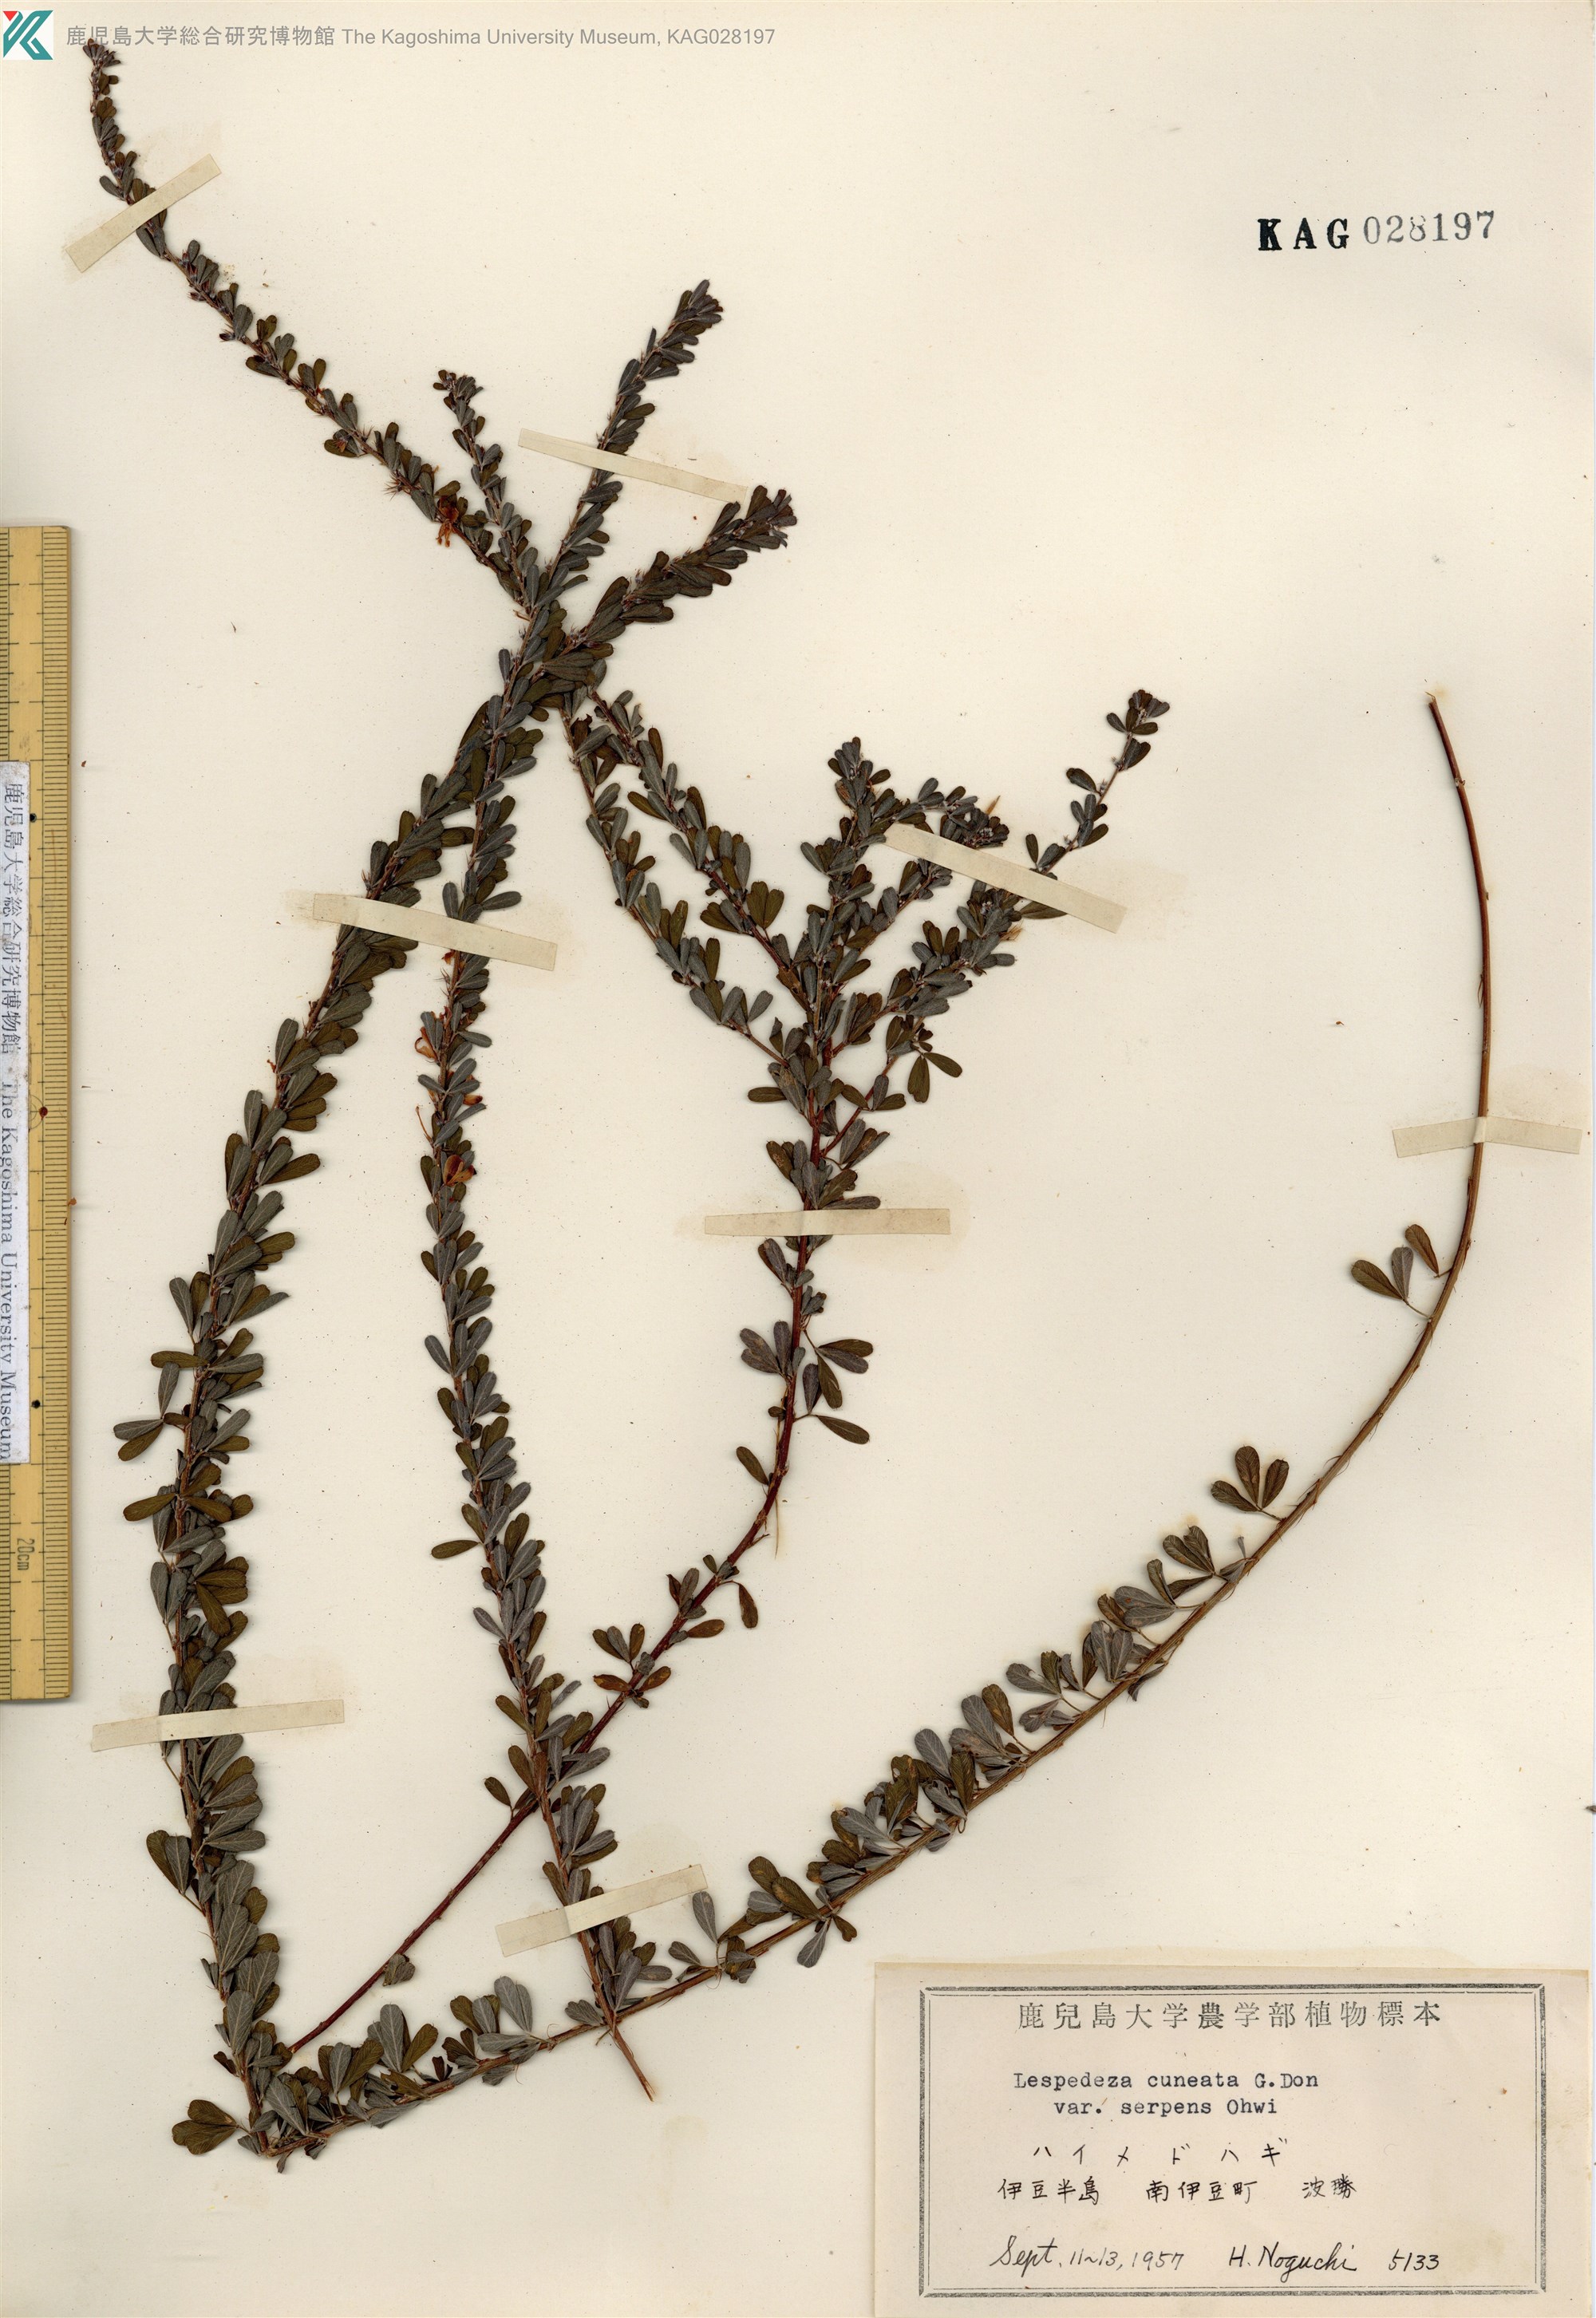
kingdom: Plantae
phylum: Tracheophyta
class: Magnoliopsida
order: Fabales
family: Fabaceae
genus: Lespedeza
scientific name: Lespedeza cuneata
